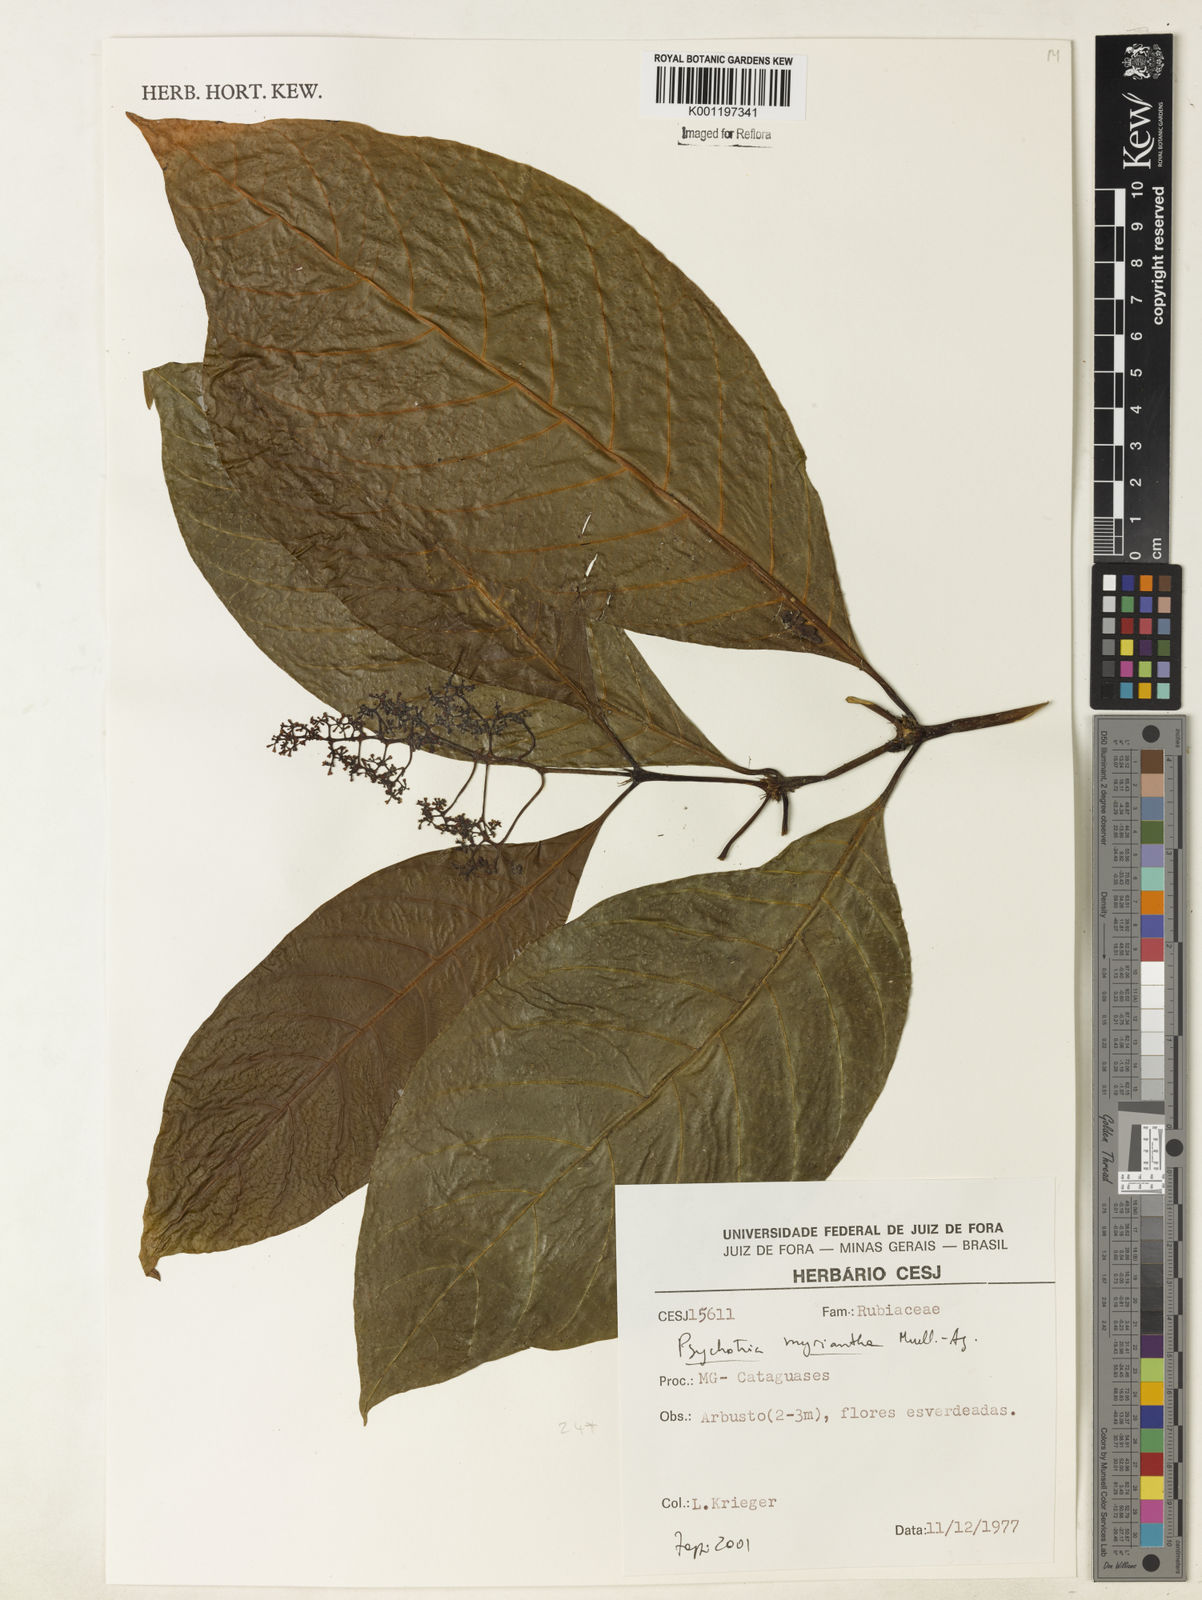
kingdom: Plantae
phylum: Tracheophyta
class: Magnoliopsida
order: Gentianales
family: Rubiaceae
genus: Psychotria
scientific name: Psychotria
